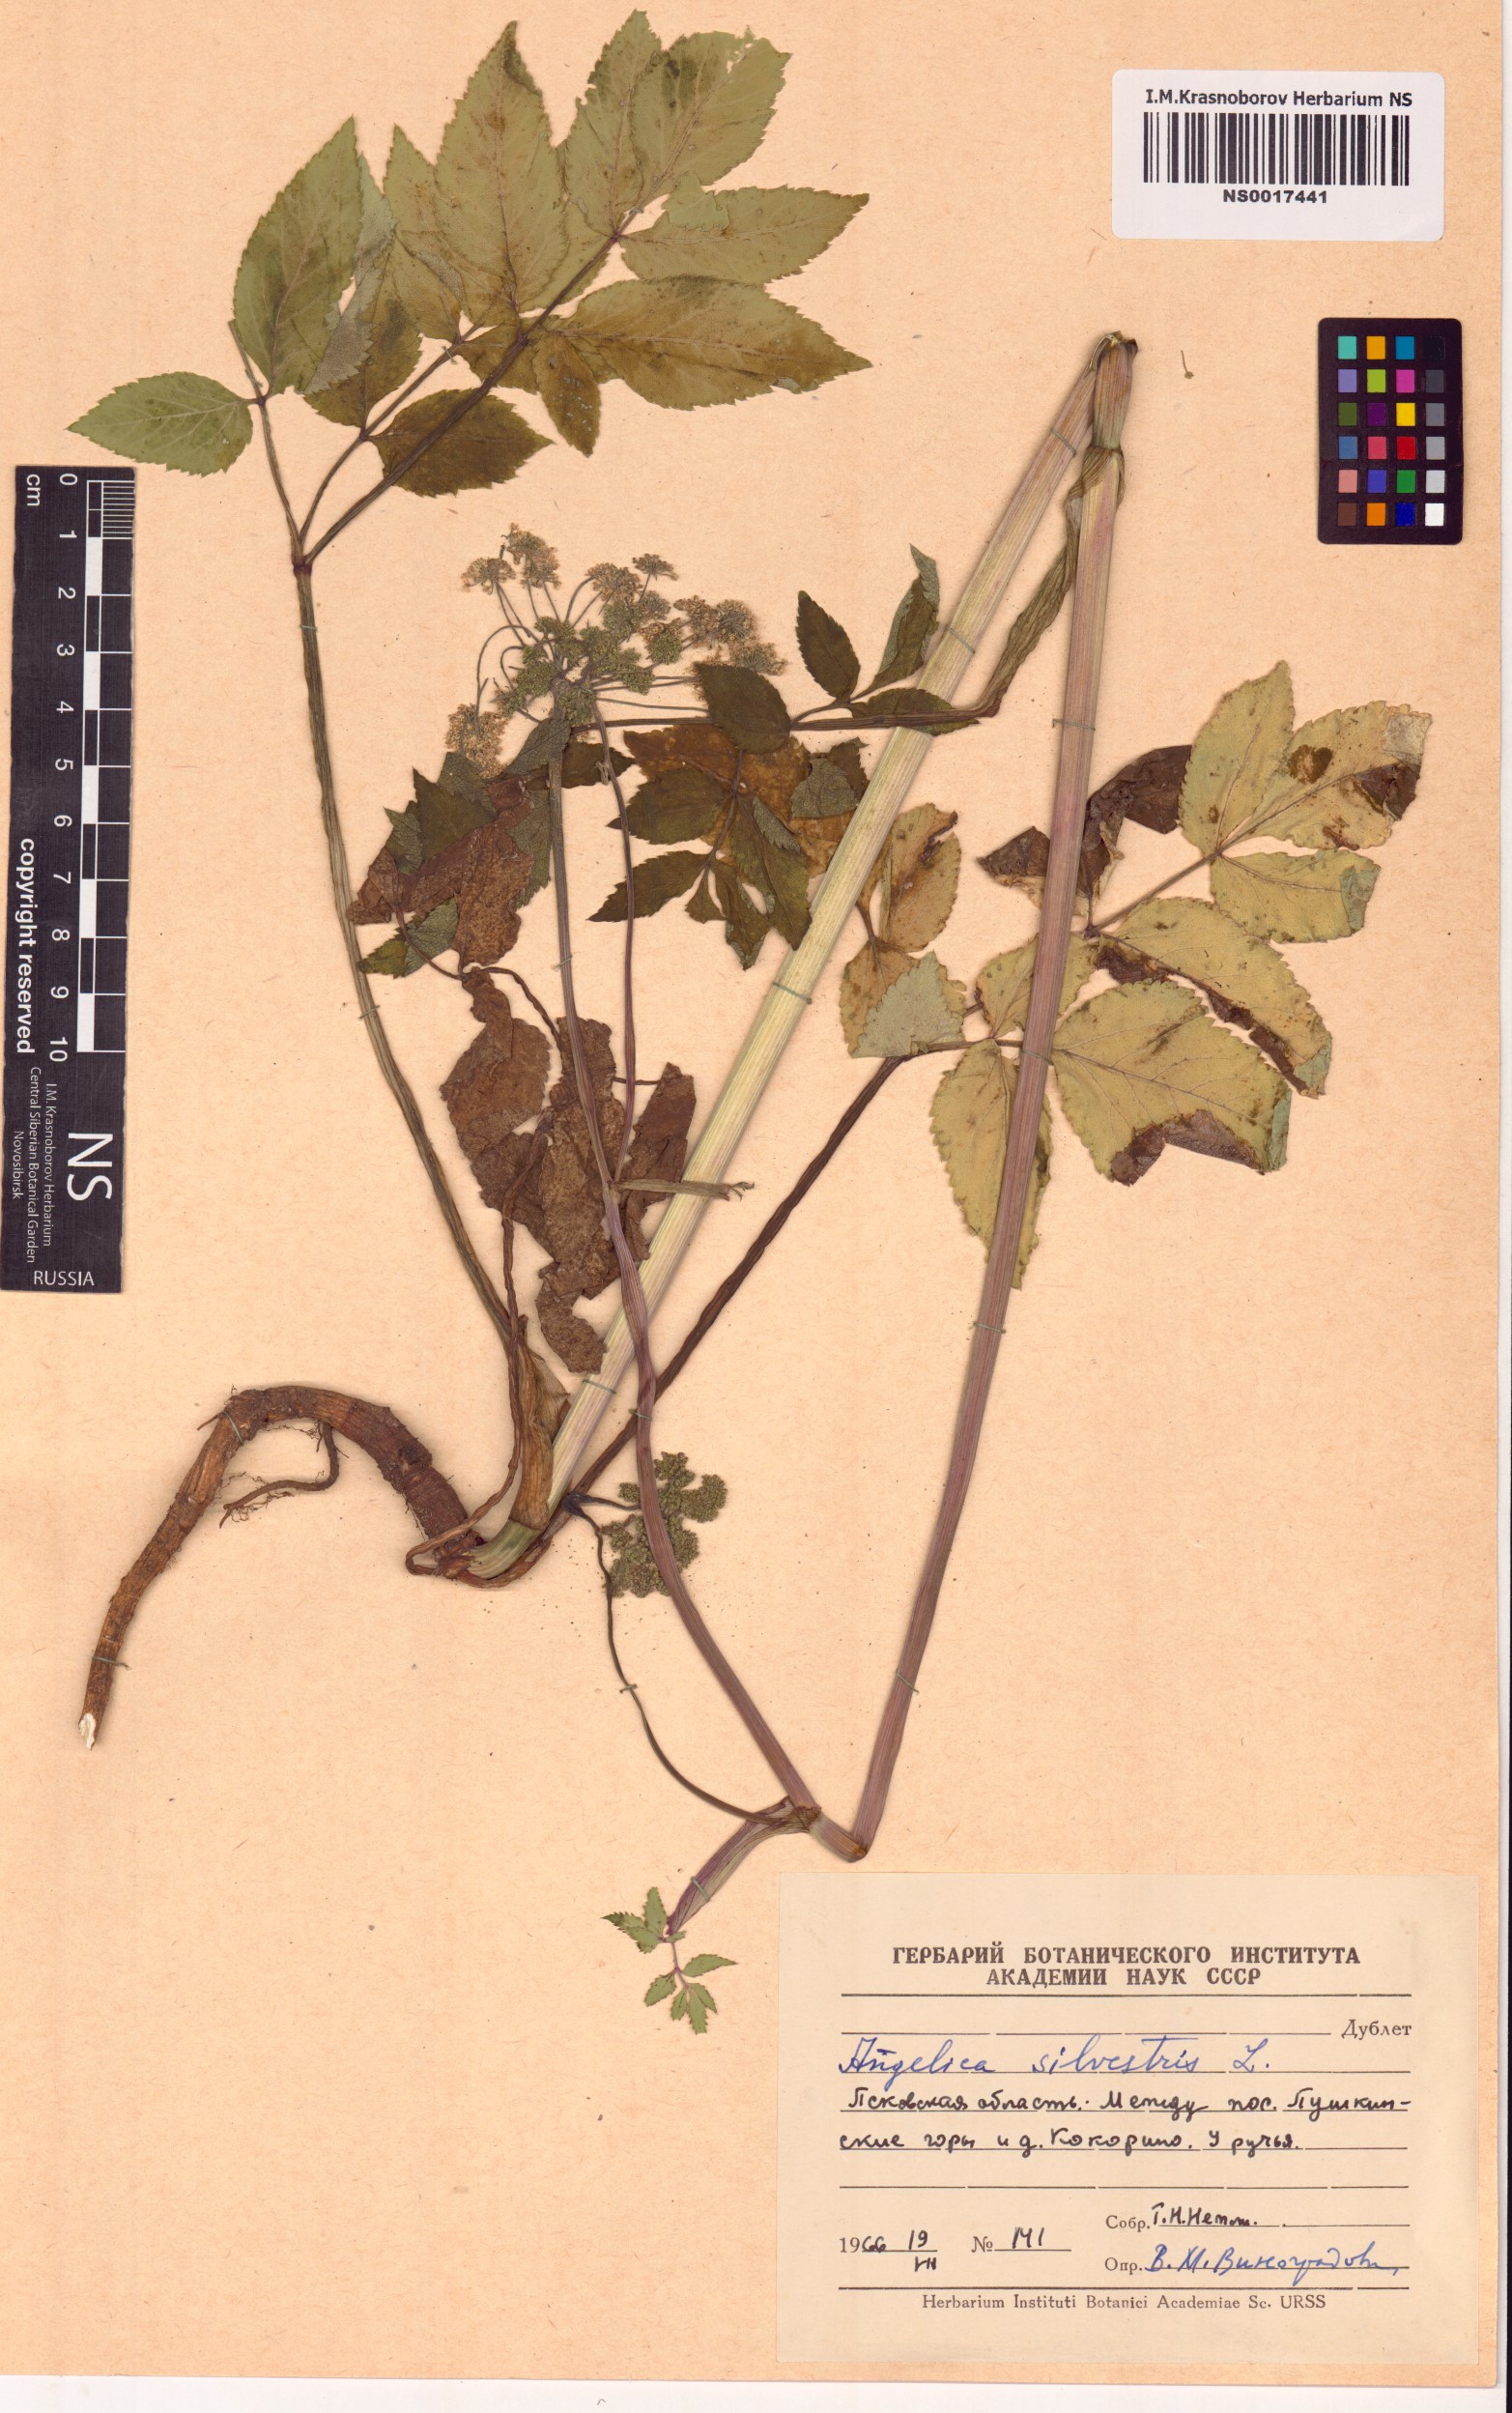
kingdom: Plantae
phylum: Tracheophyta
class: Magnoliopsida
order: Apiales
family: Apiaceae
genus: Angelica
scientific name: Angelica sylvestris
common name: Wild angelica
